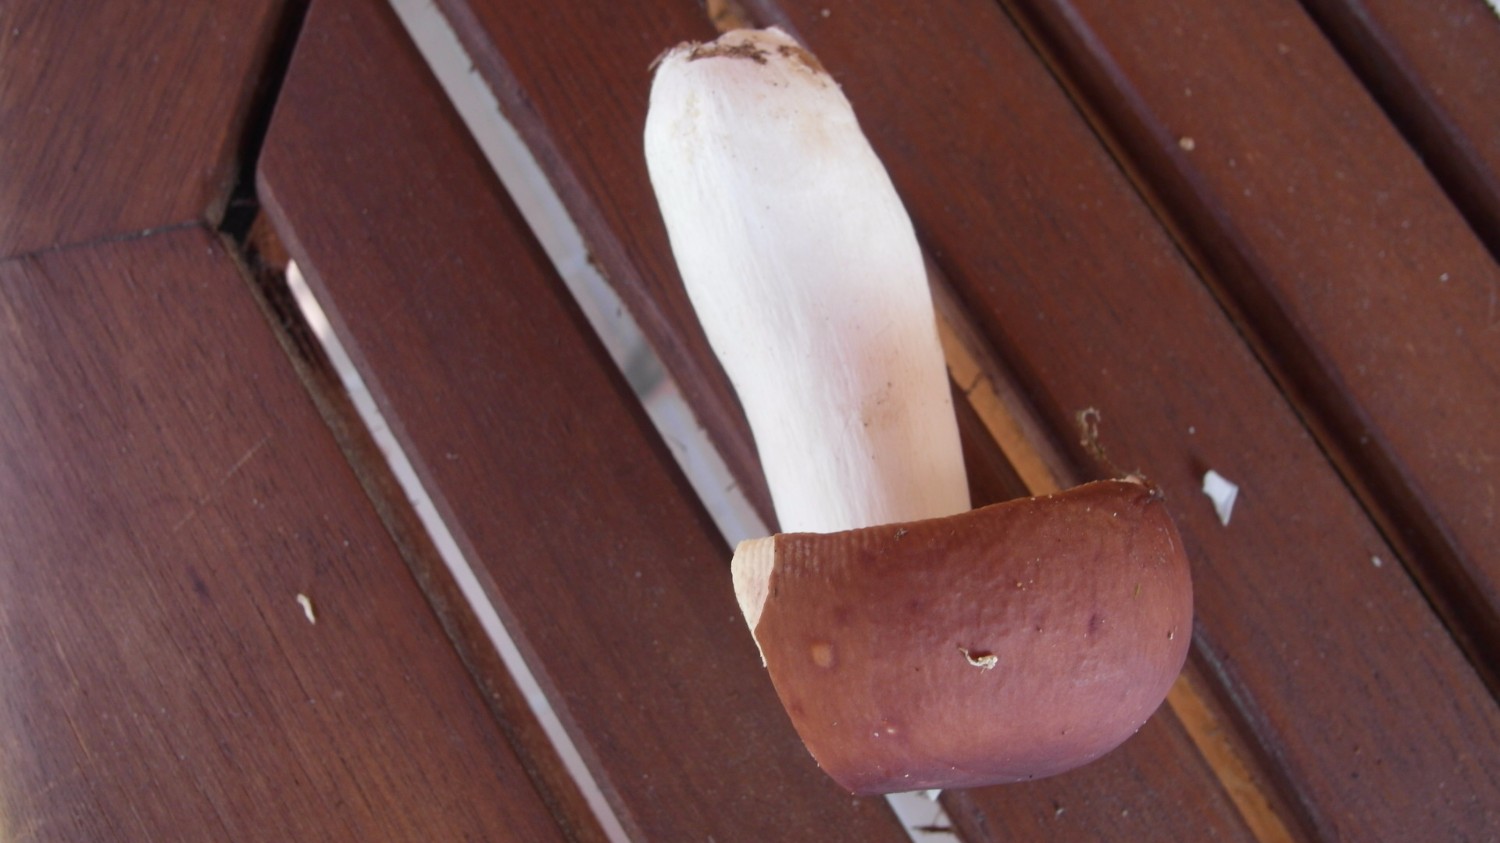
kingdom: Fungi
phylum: Basidiomycota
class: Agaricomycetes
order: Russulales
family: Russulaceae
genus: Russula
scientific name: Russula badia
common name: peber-skørhat
